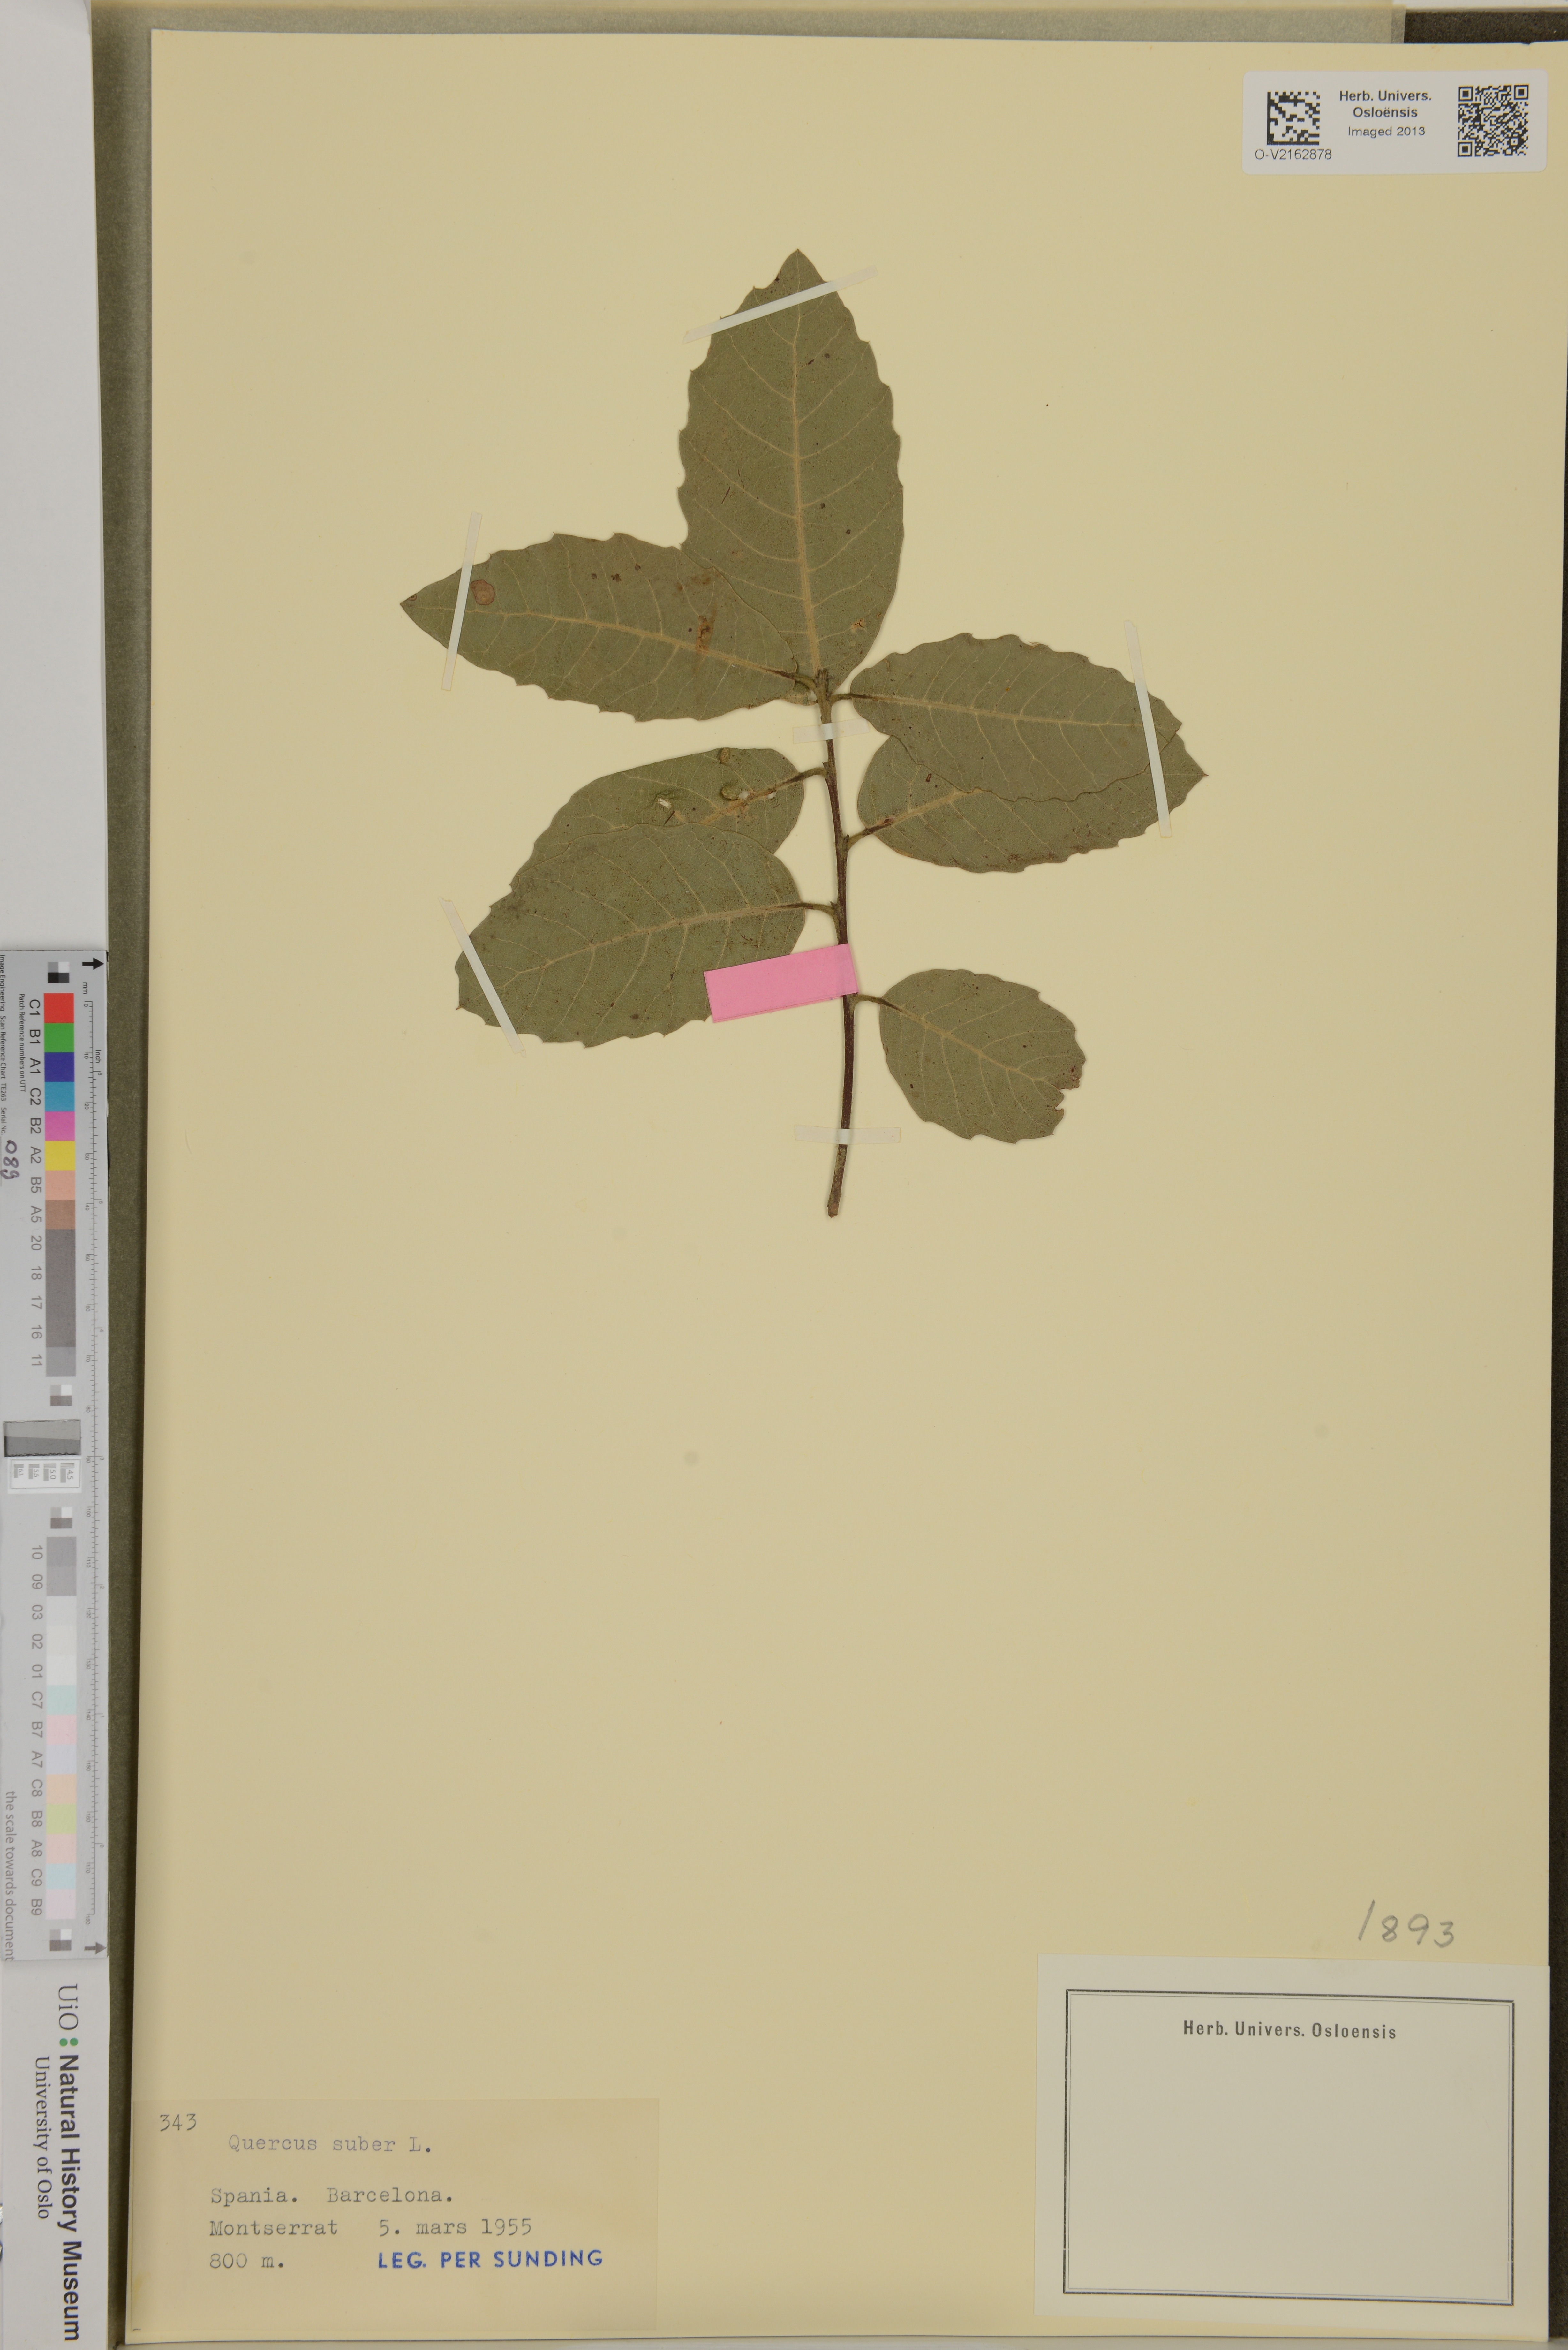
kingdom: Plantae
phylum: Tracheophyta
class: Magnoliopsida
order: Fagales
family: Fagaceae
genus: Quercus
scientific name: Quercus suber
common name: Cork oak
